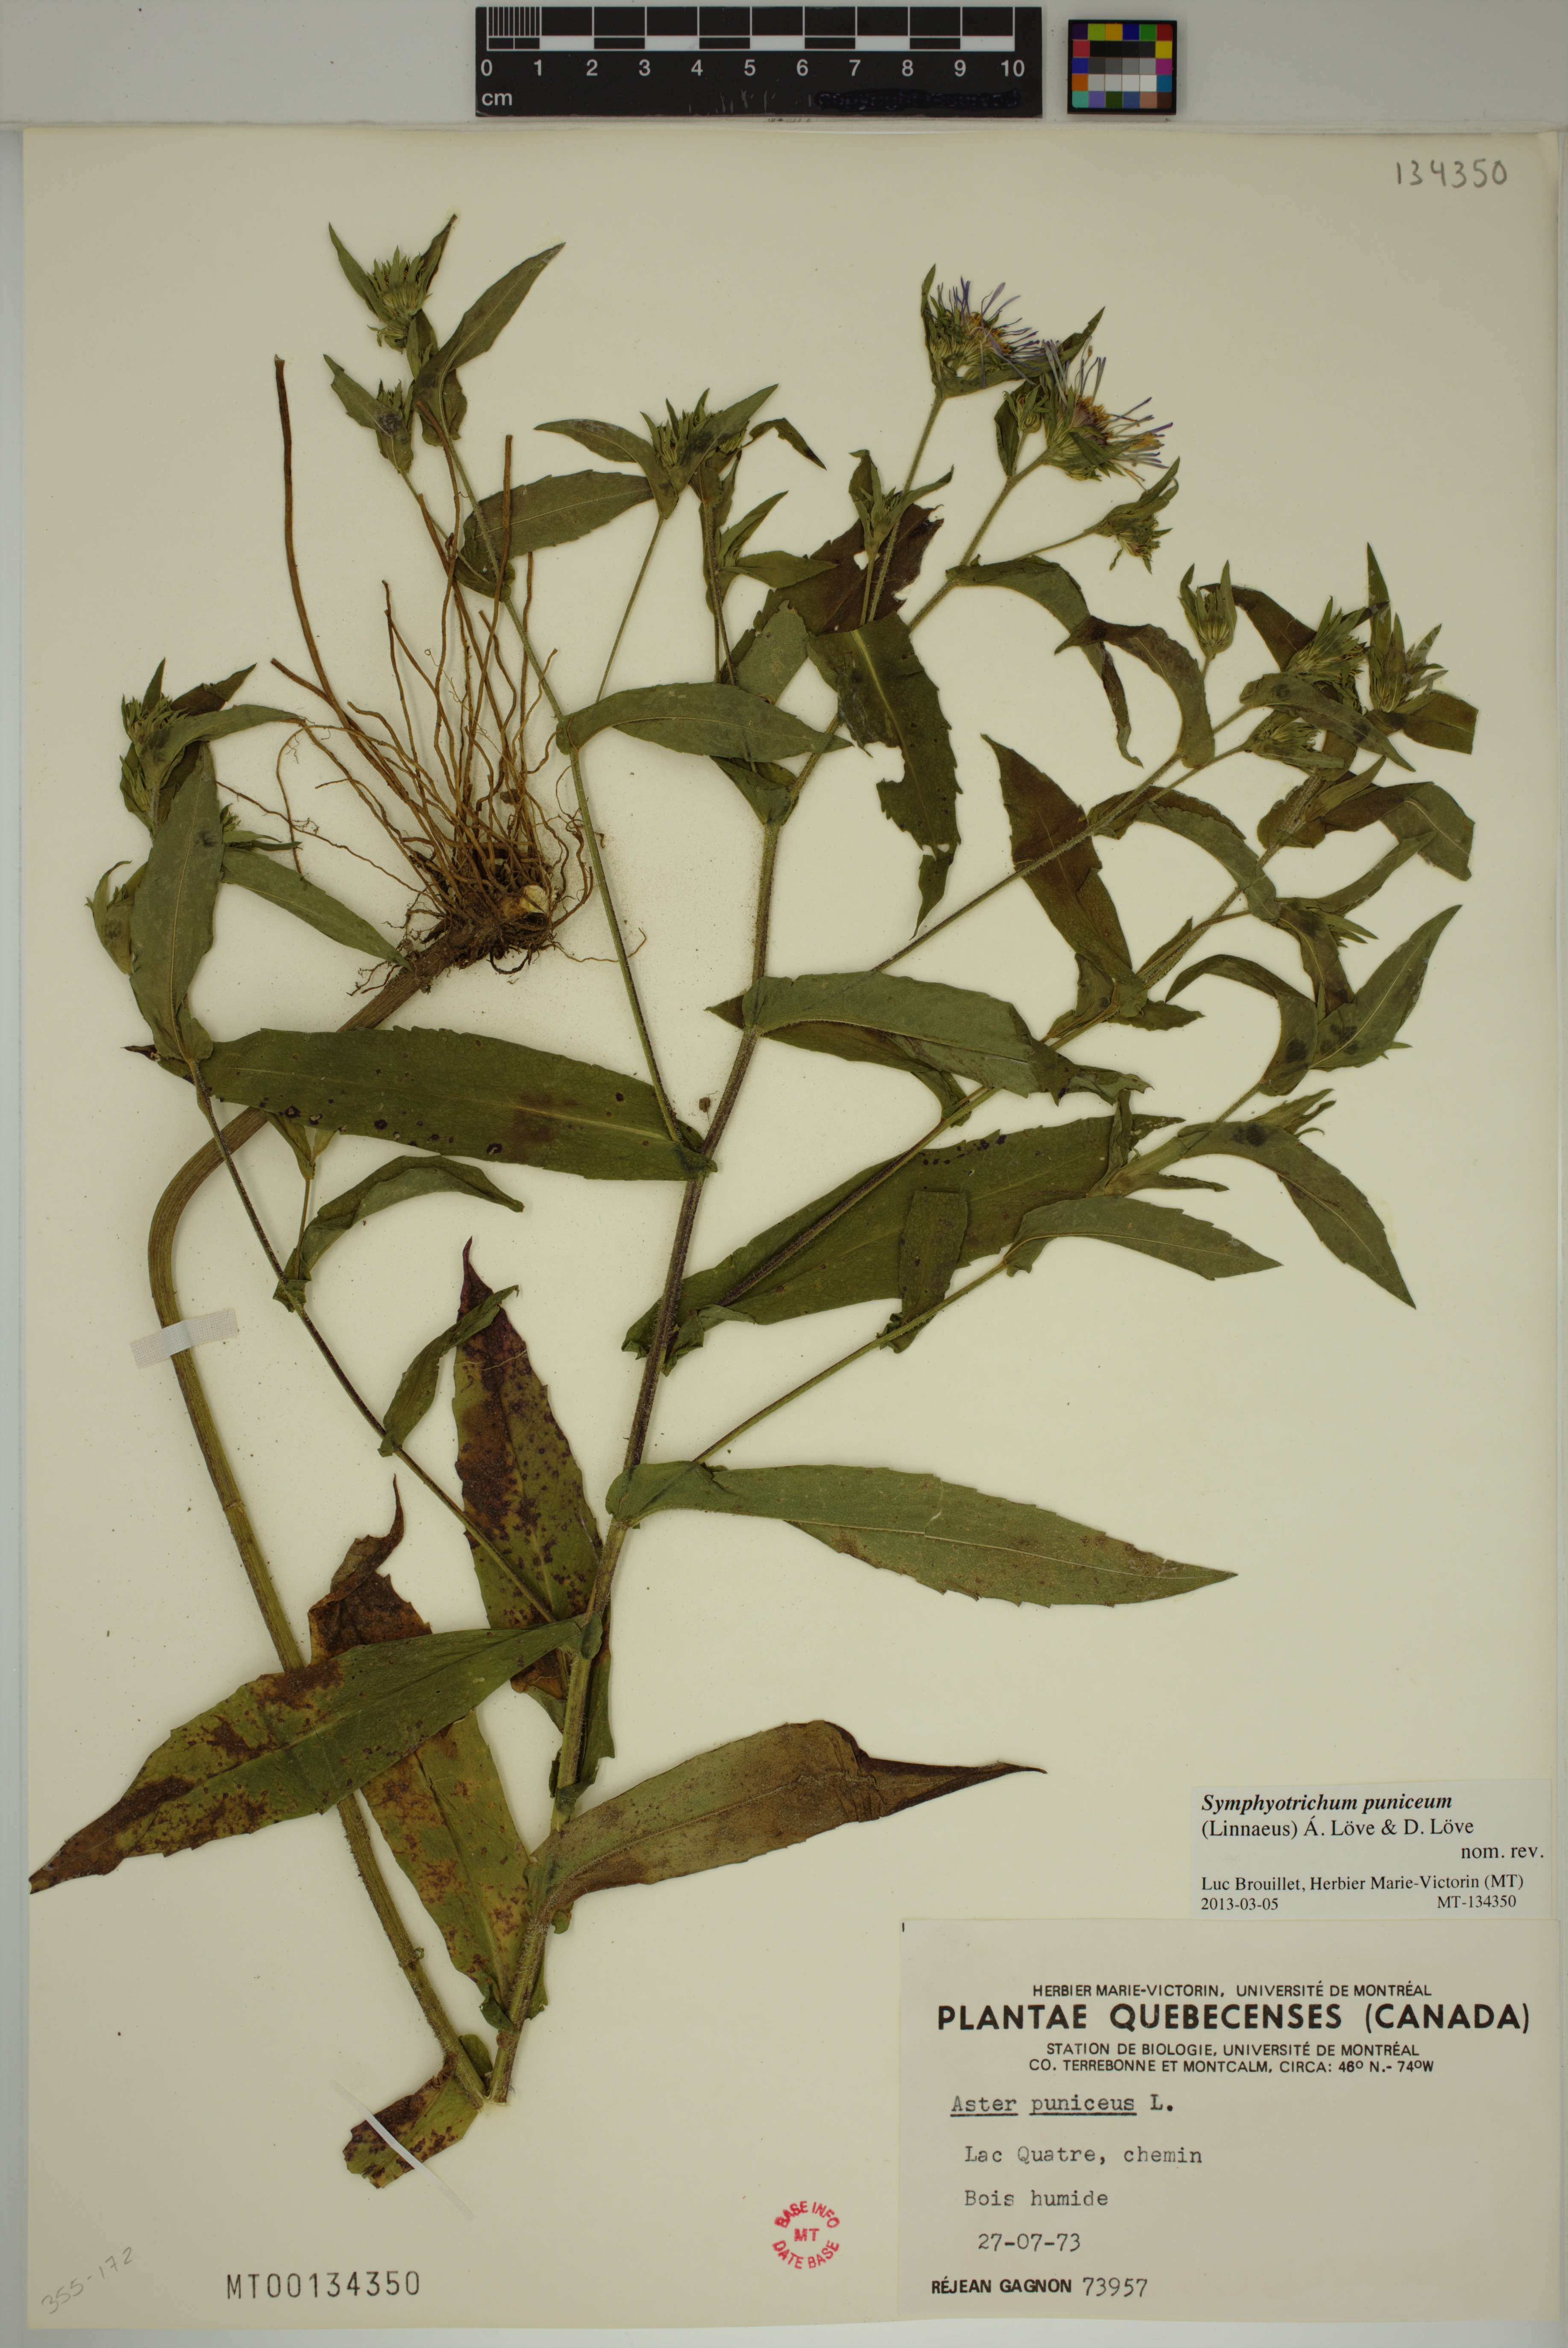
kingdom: Plantae
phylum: Tracheophyta
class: Magnoliopsida
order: Asterales
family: Asteraceae
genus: Symphyotrichum
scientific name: Symphyotrichum puniceum
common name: Bog aster
